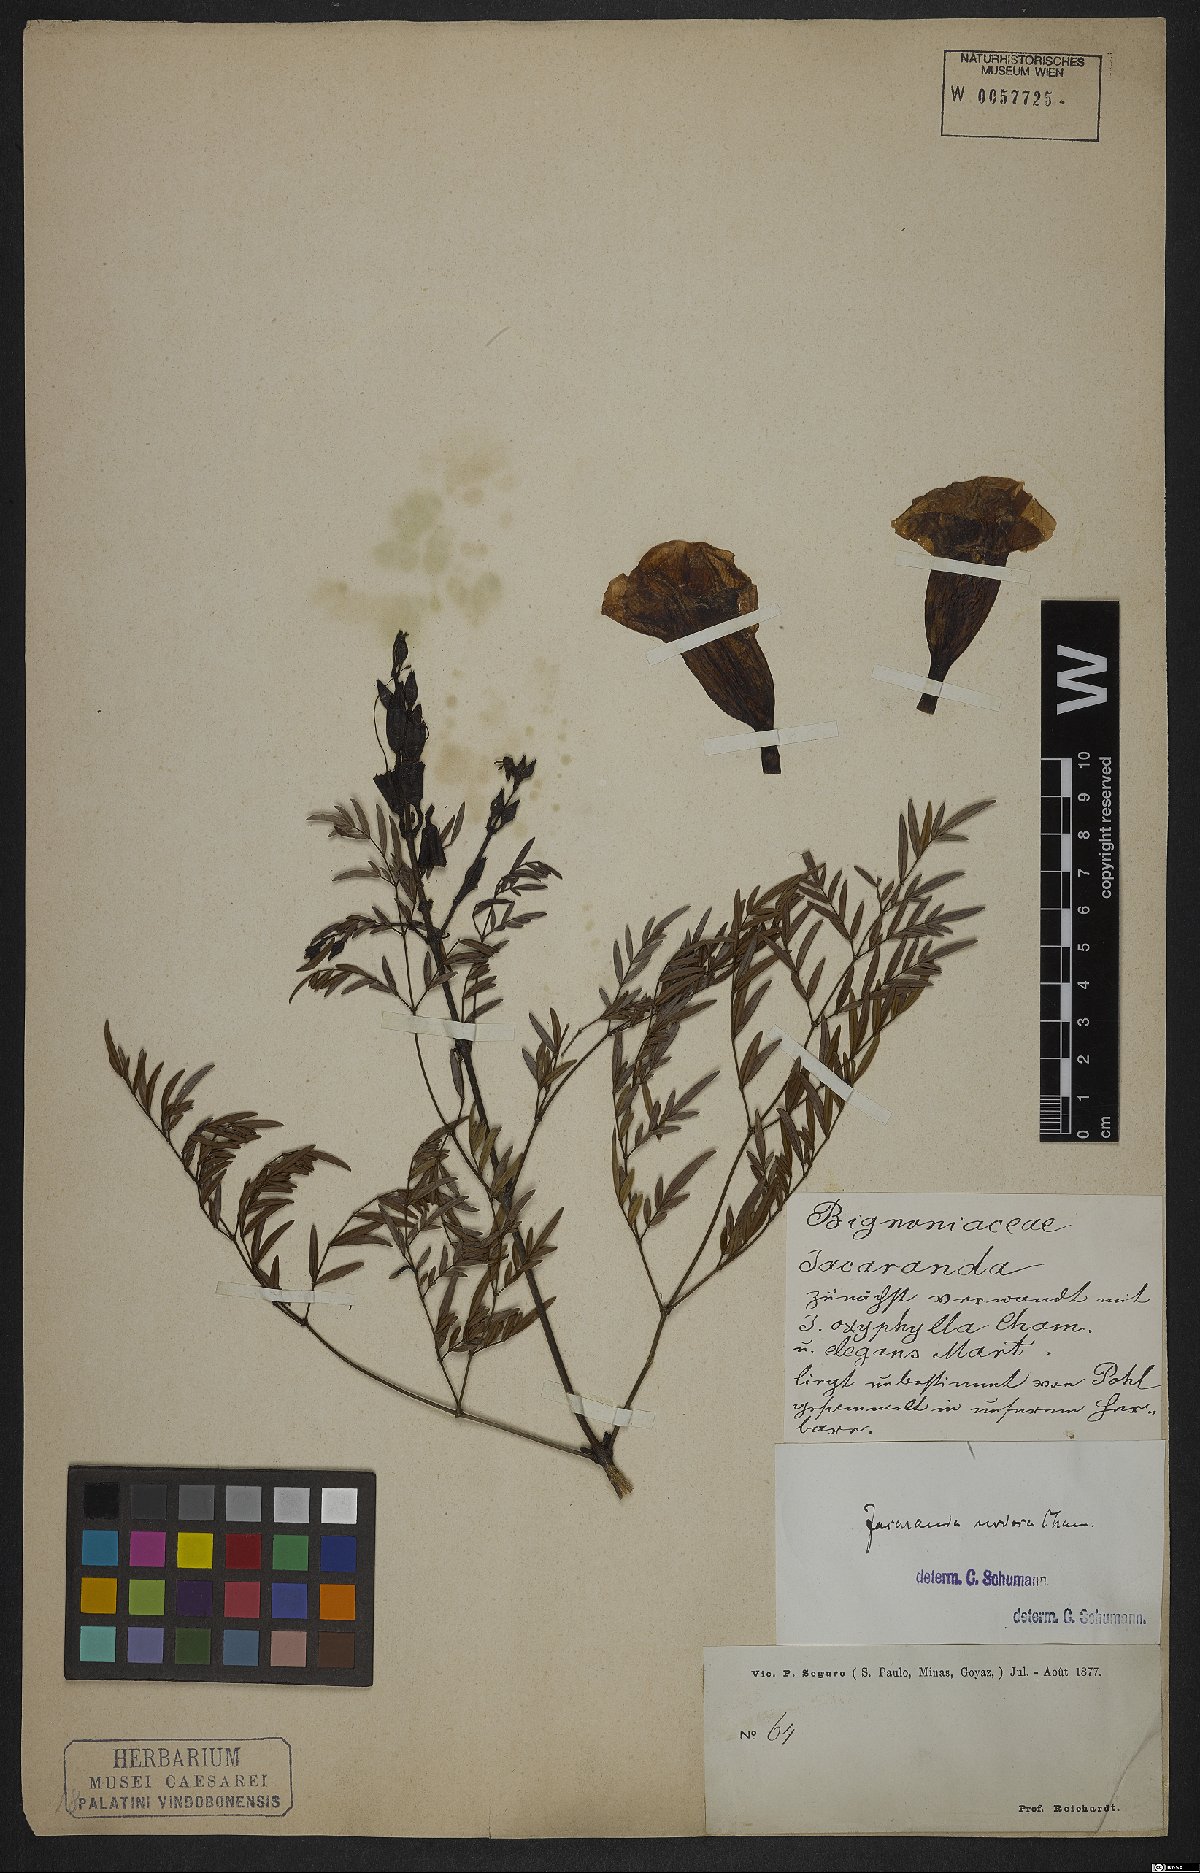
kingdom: Plantae
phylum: Tracheophyta
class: Magnoliopsida
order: Lamiales
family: Bignoniaceae
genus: Jacaranda
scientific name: Jacaranda
